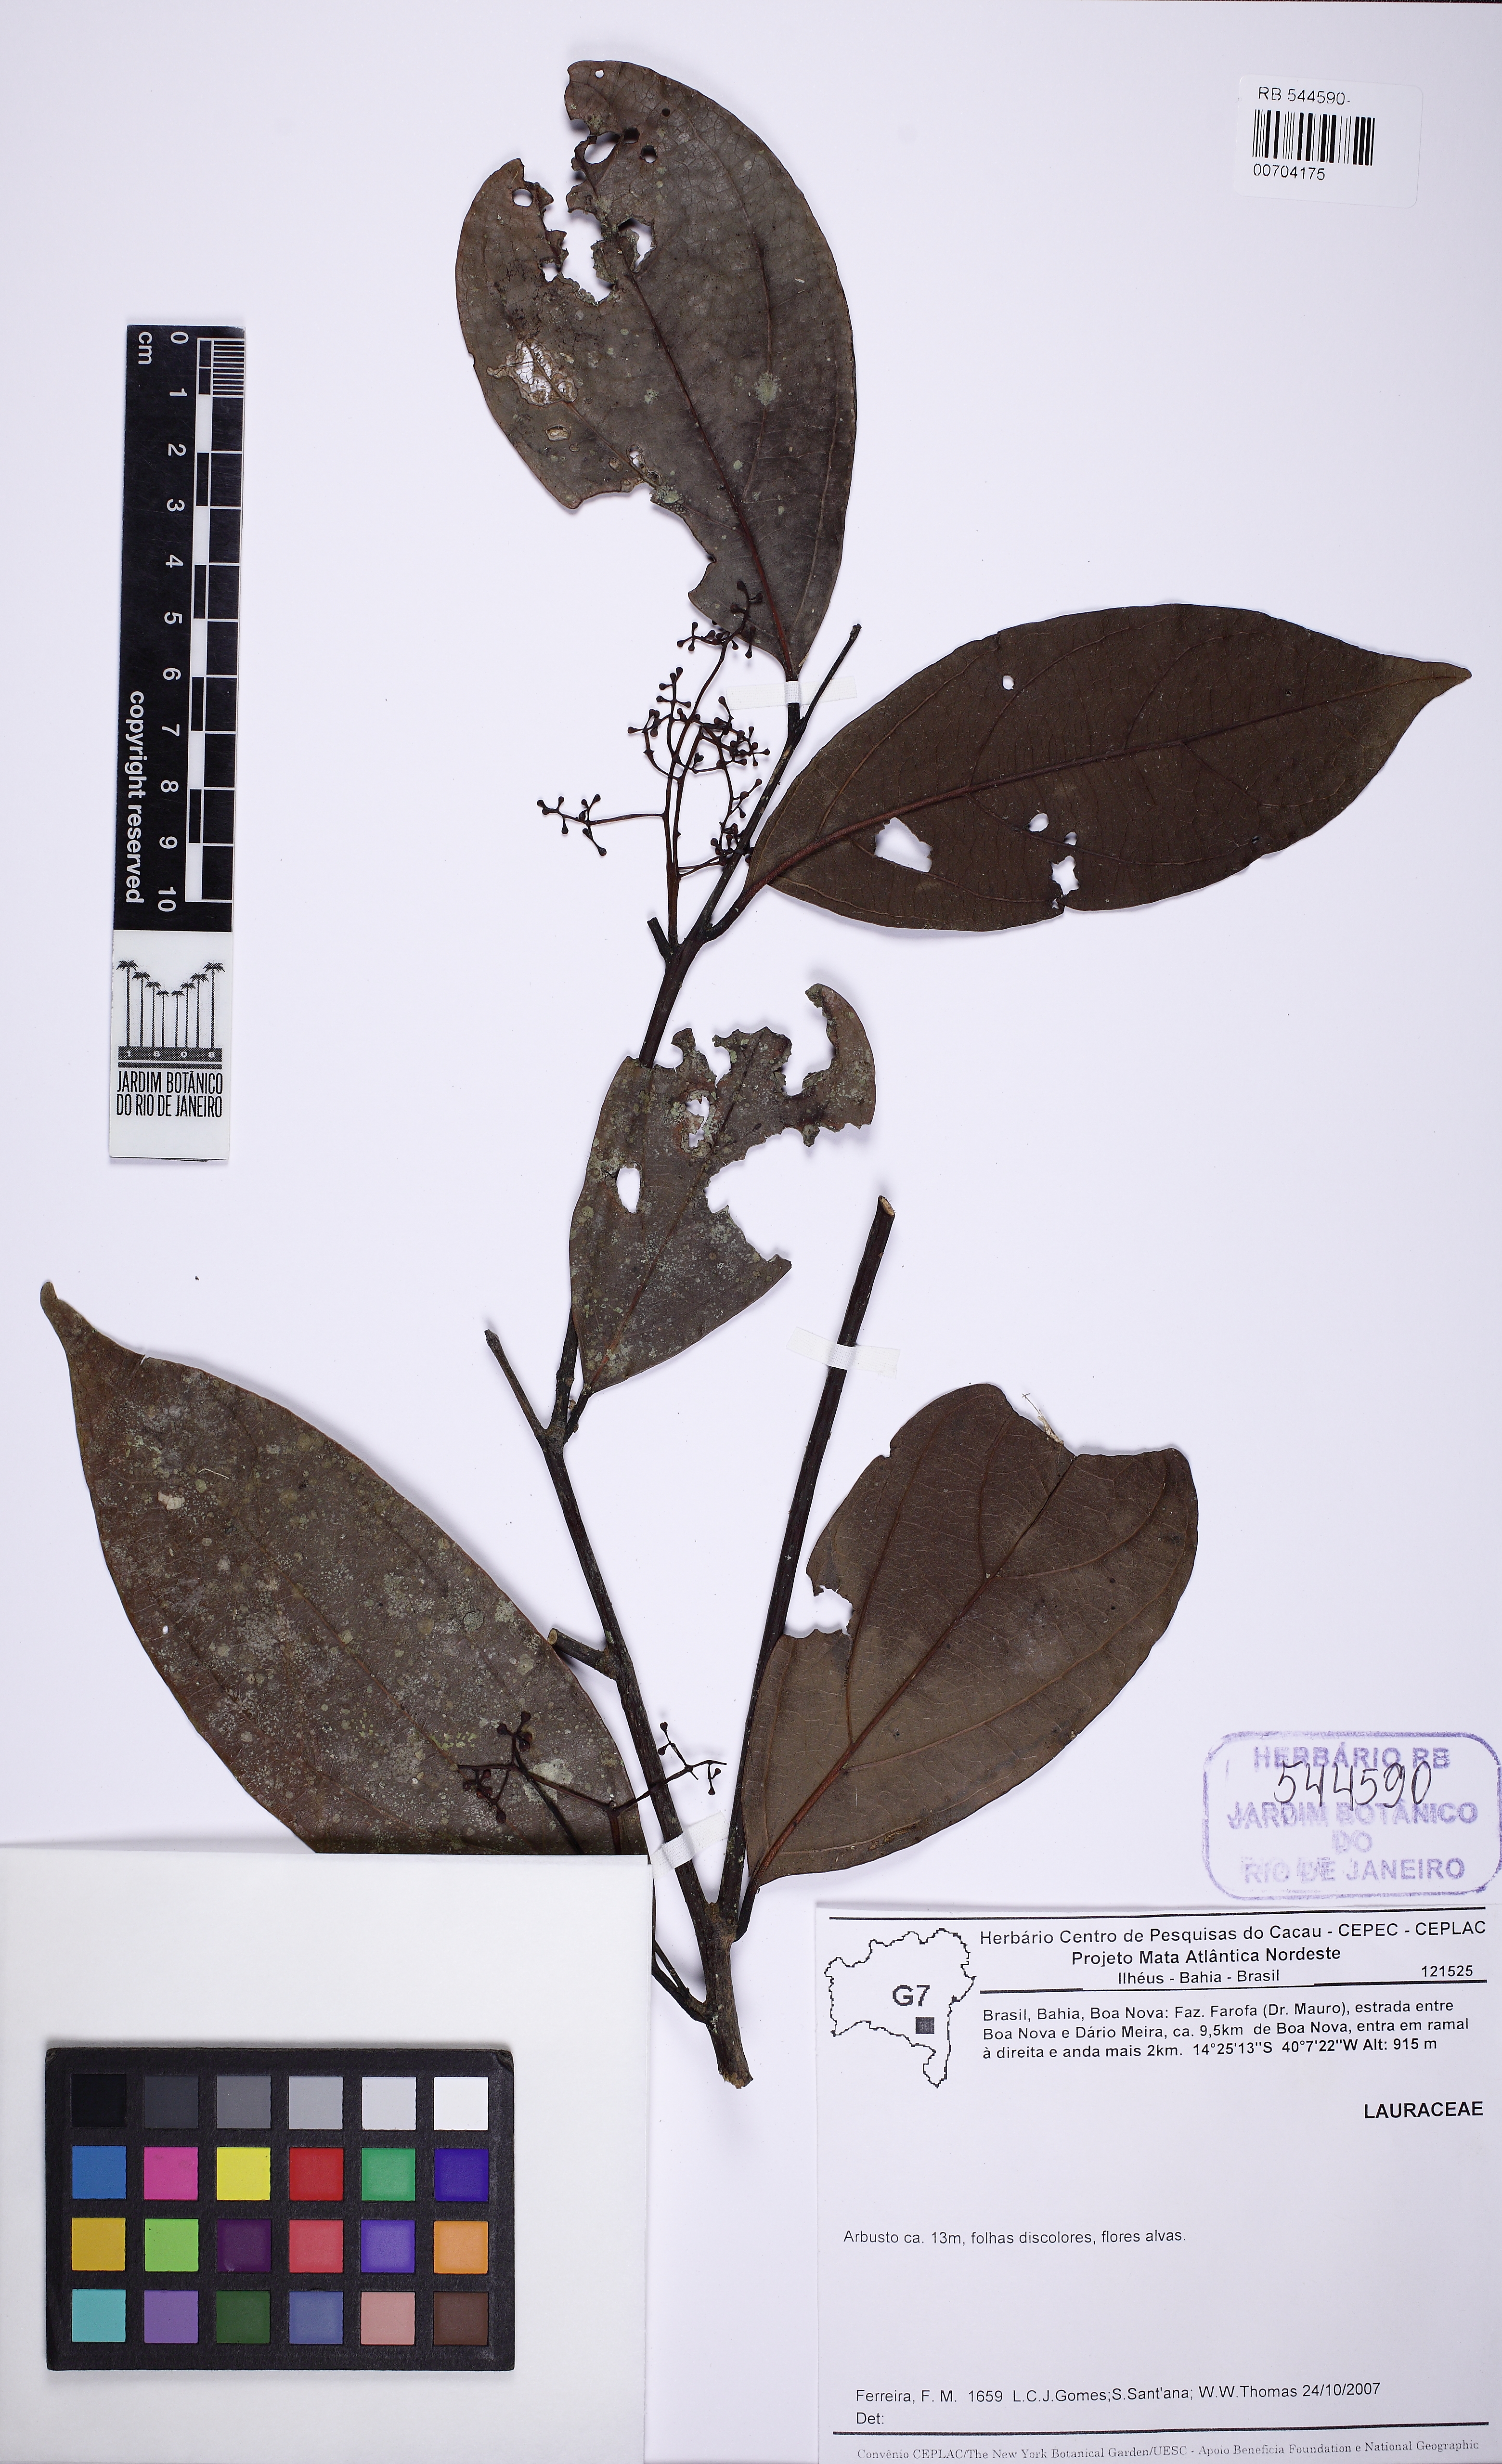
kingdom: Plantae
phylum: Tracheophyta
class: Magnoliopsida
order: Laurales
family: Lauraceae
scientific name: Lauraceae
